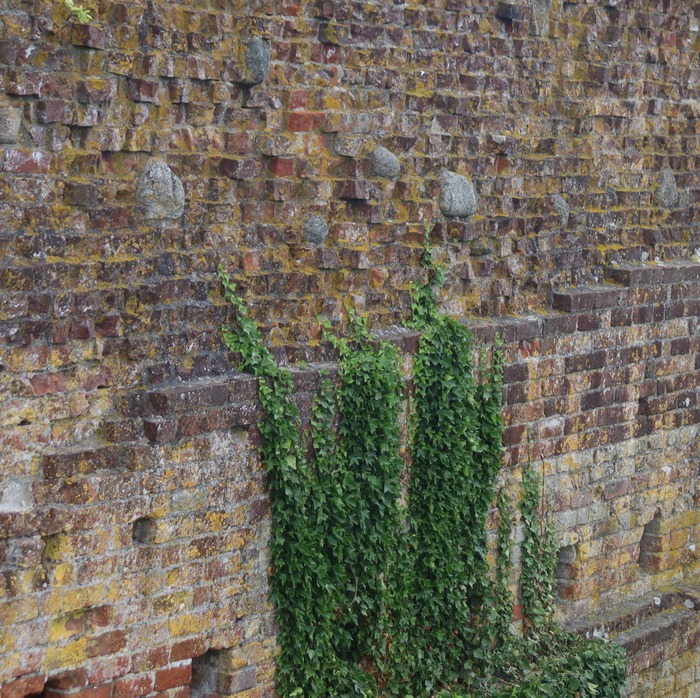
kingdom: Plantae
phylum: Tracheophyta
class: Magnoliopsida
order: Apiales
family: Araliaceae
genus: Hedera
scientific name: Hedera helix
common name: Vedbend
